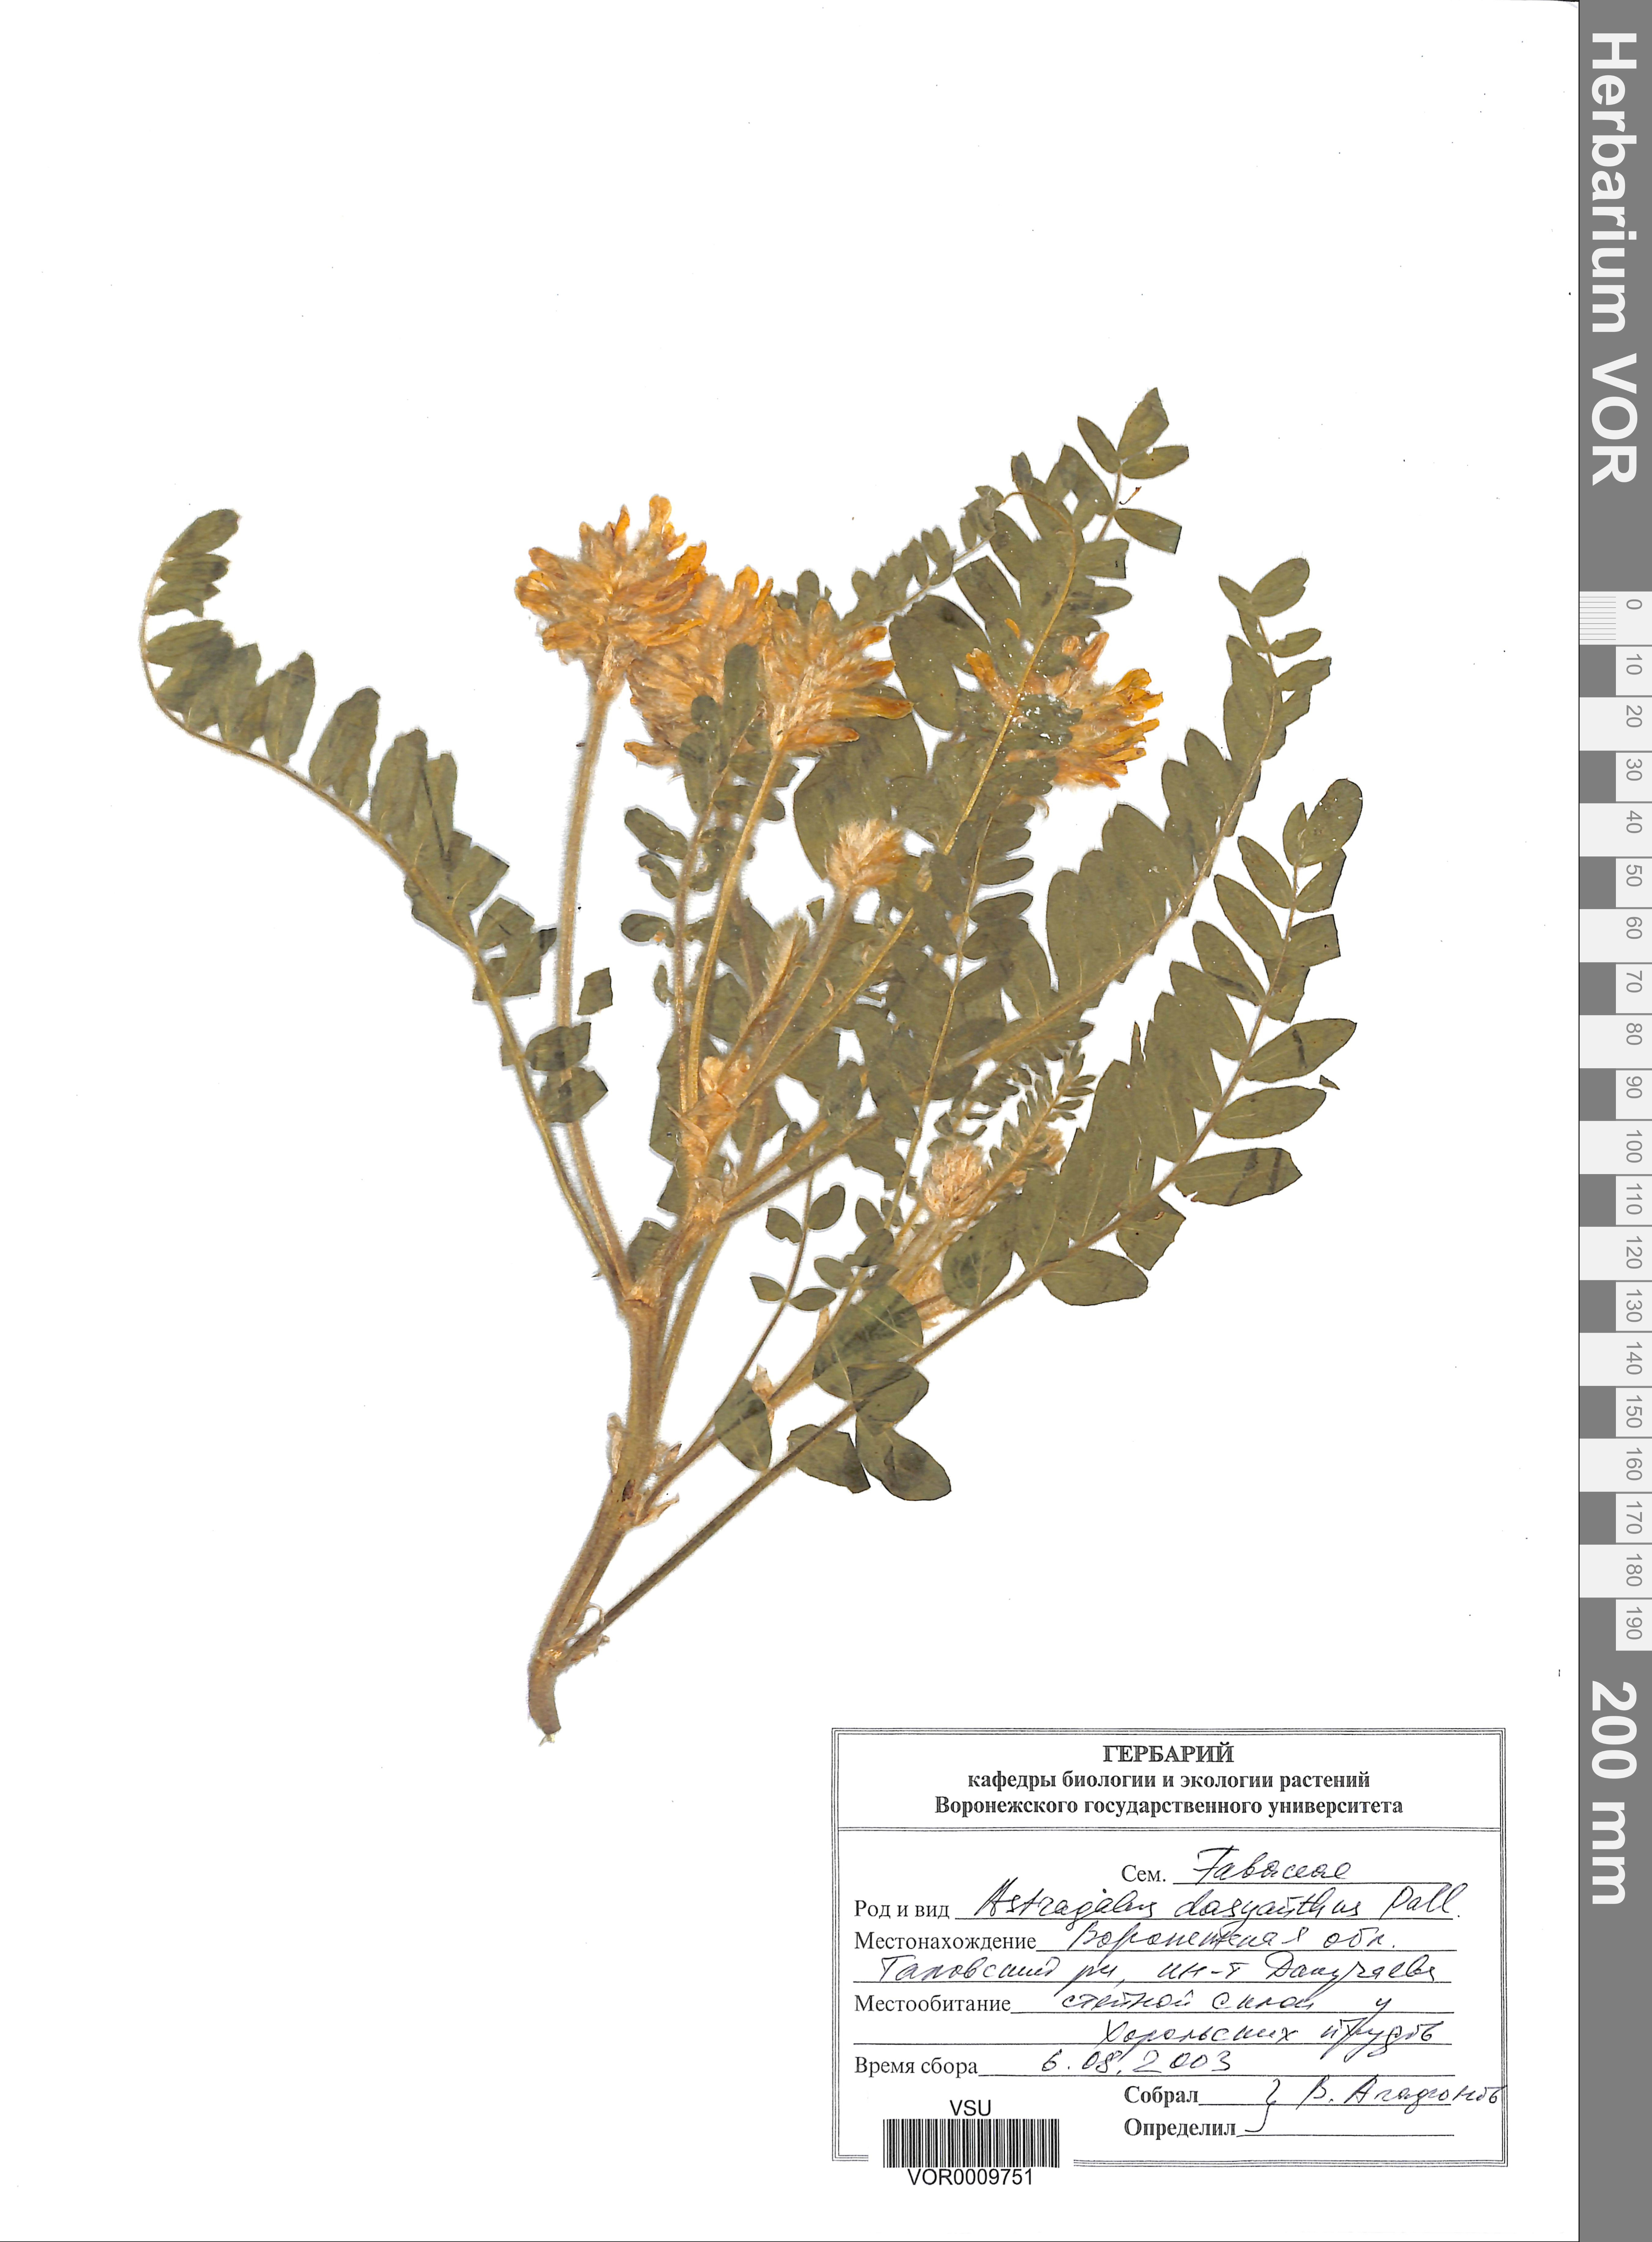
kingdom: Plantae
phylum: Tracheophyta
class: Magnoliopsida
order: Fabales
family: Fabaceae
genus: Astragalus
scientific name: Astragalus dasyanthus
